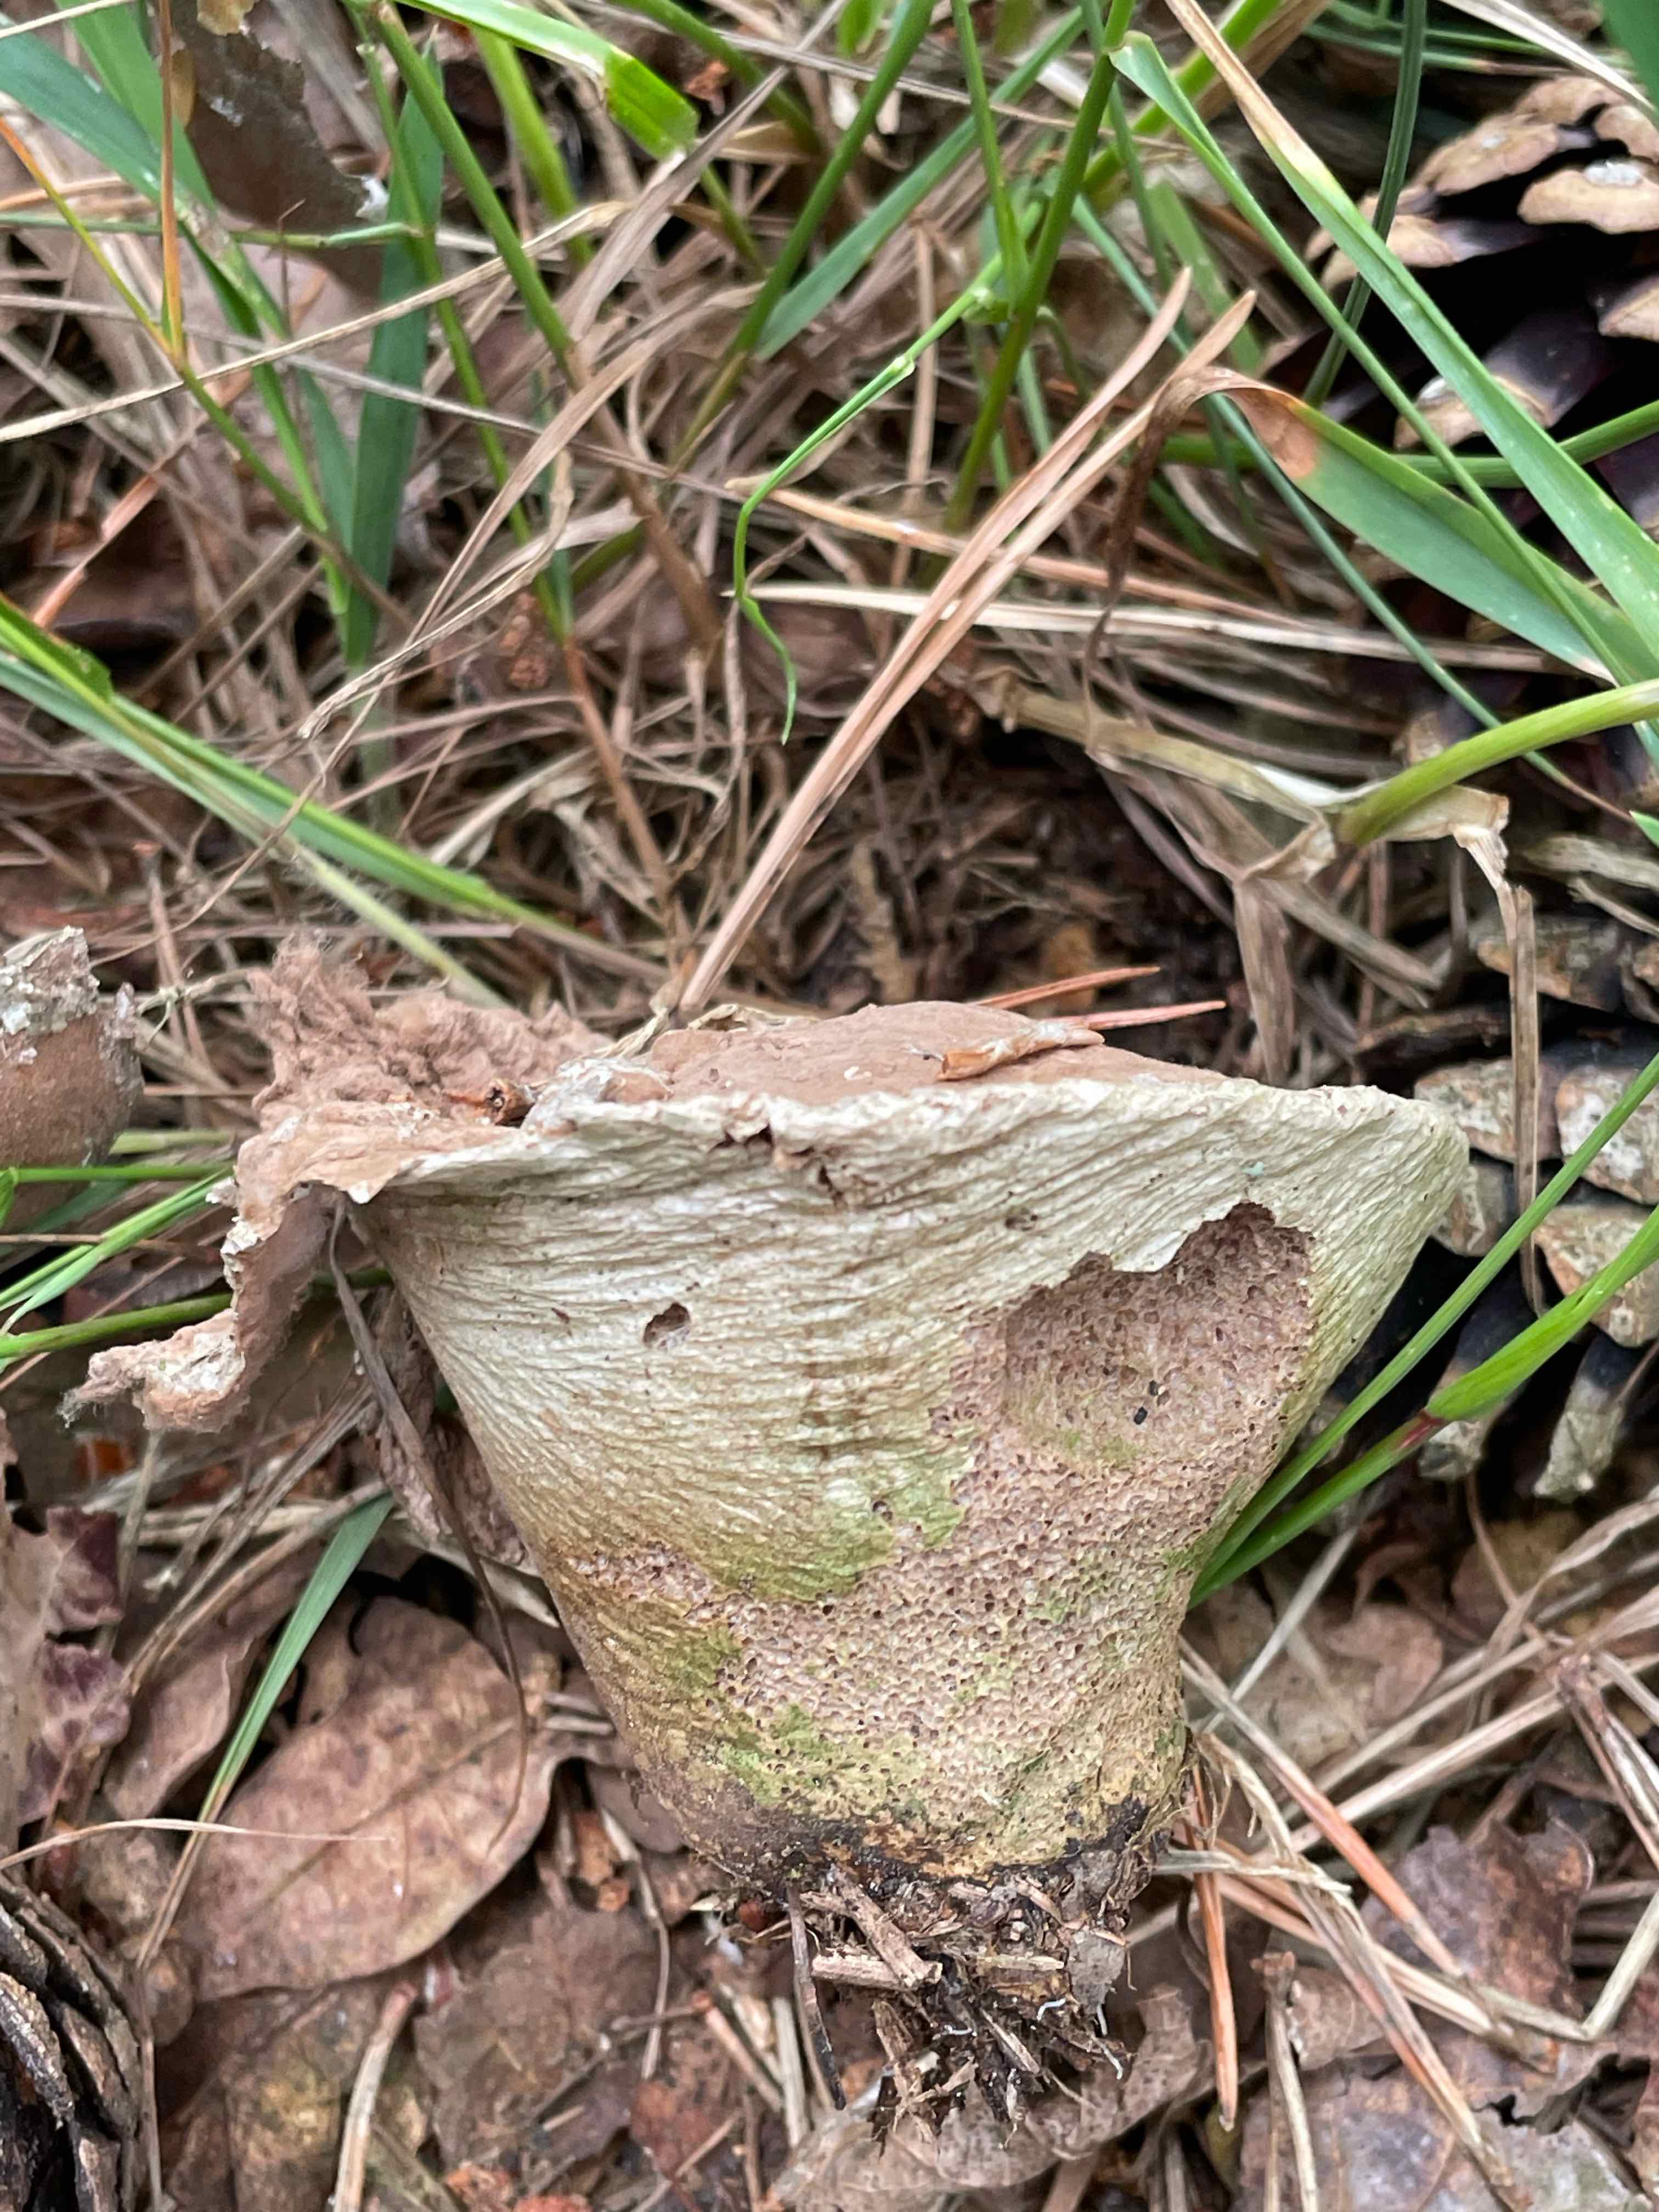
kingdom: Fungi
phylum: Basidiomycota
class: Agaricomycetes
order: Agaricales
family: Agaricaceae
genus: Lycoperdon
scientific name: Lycoperdon
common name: støvbold
